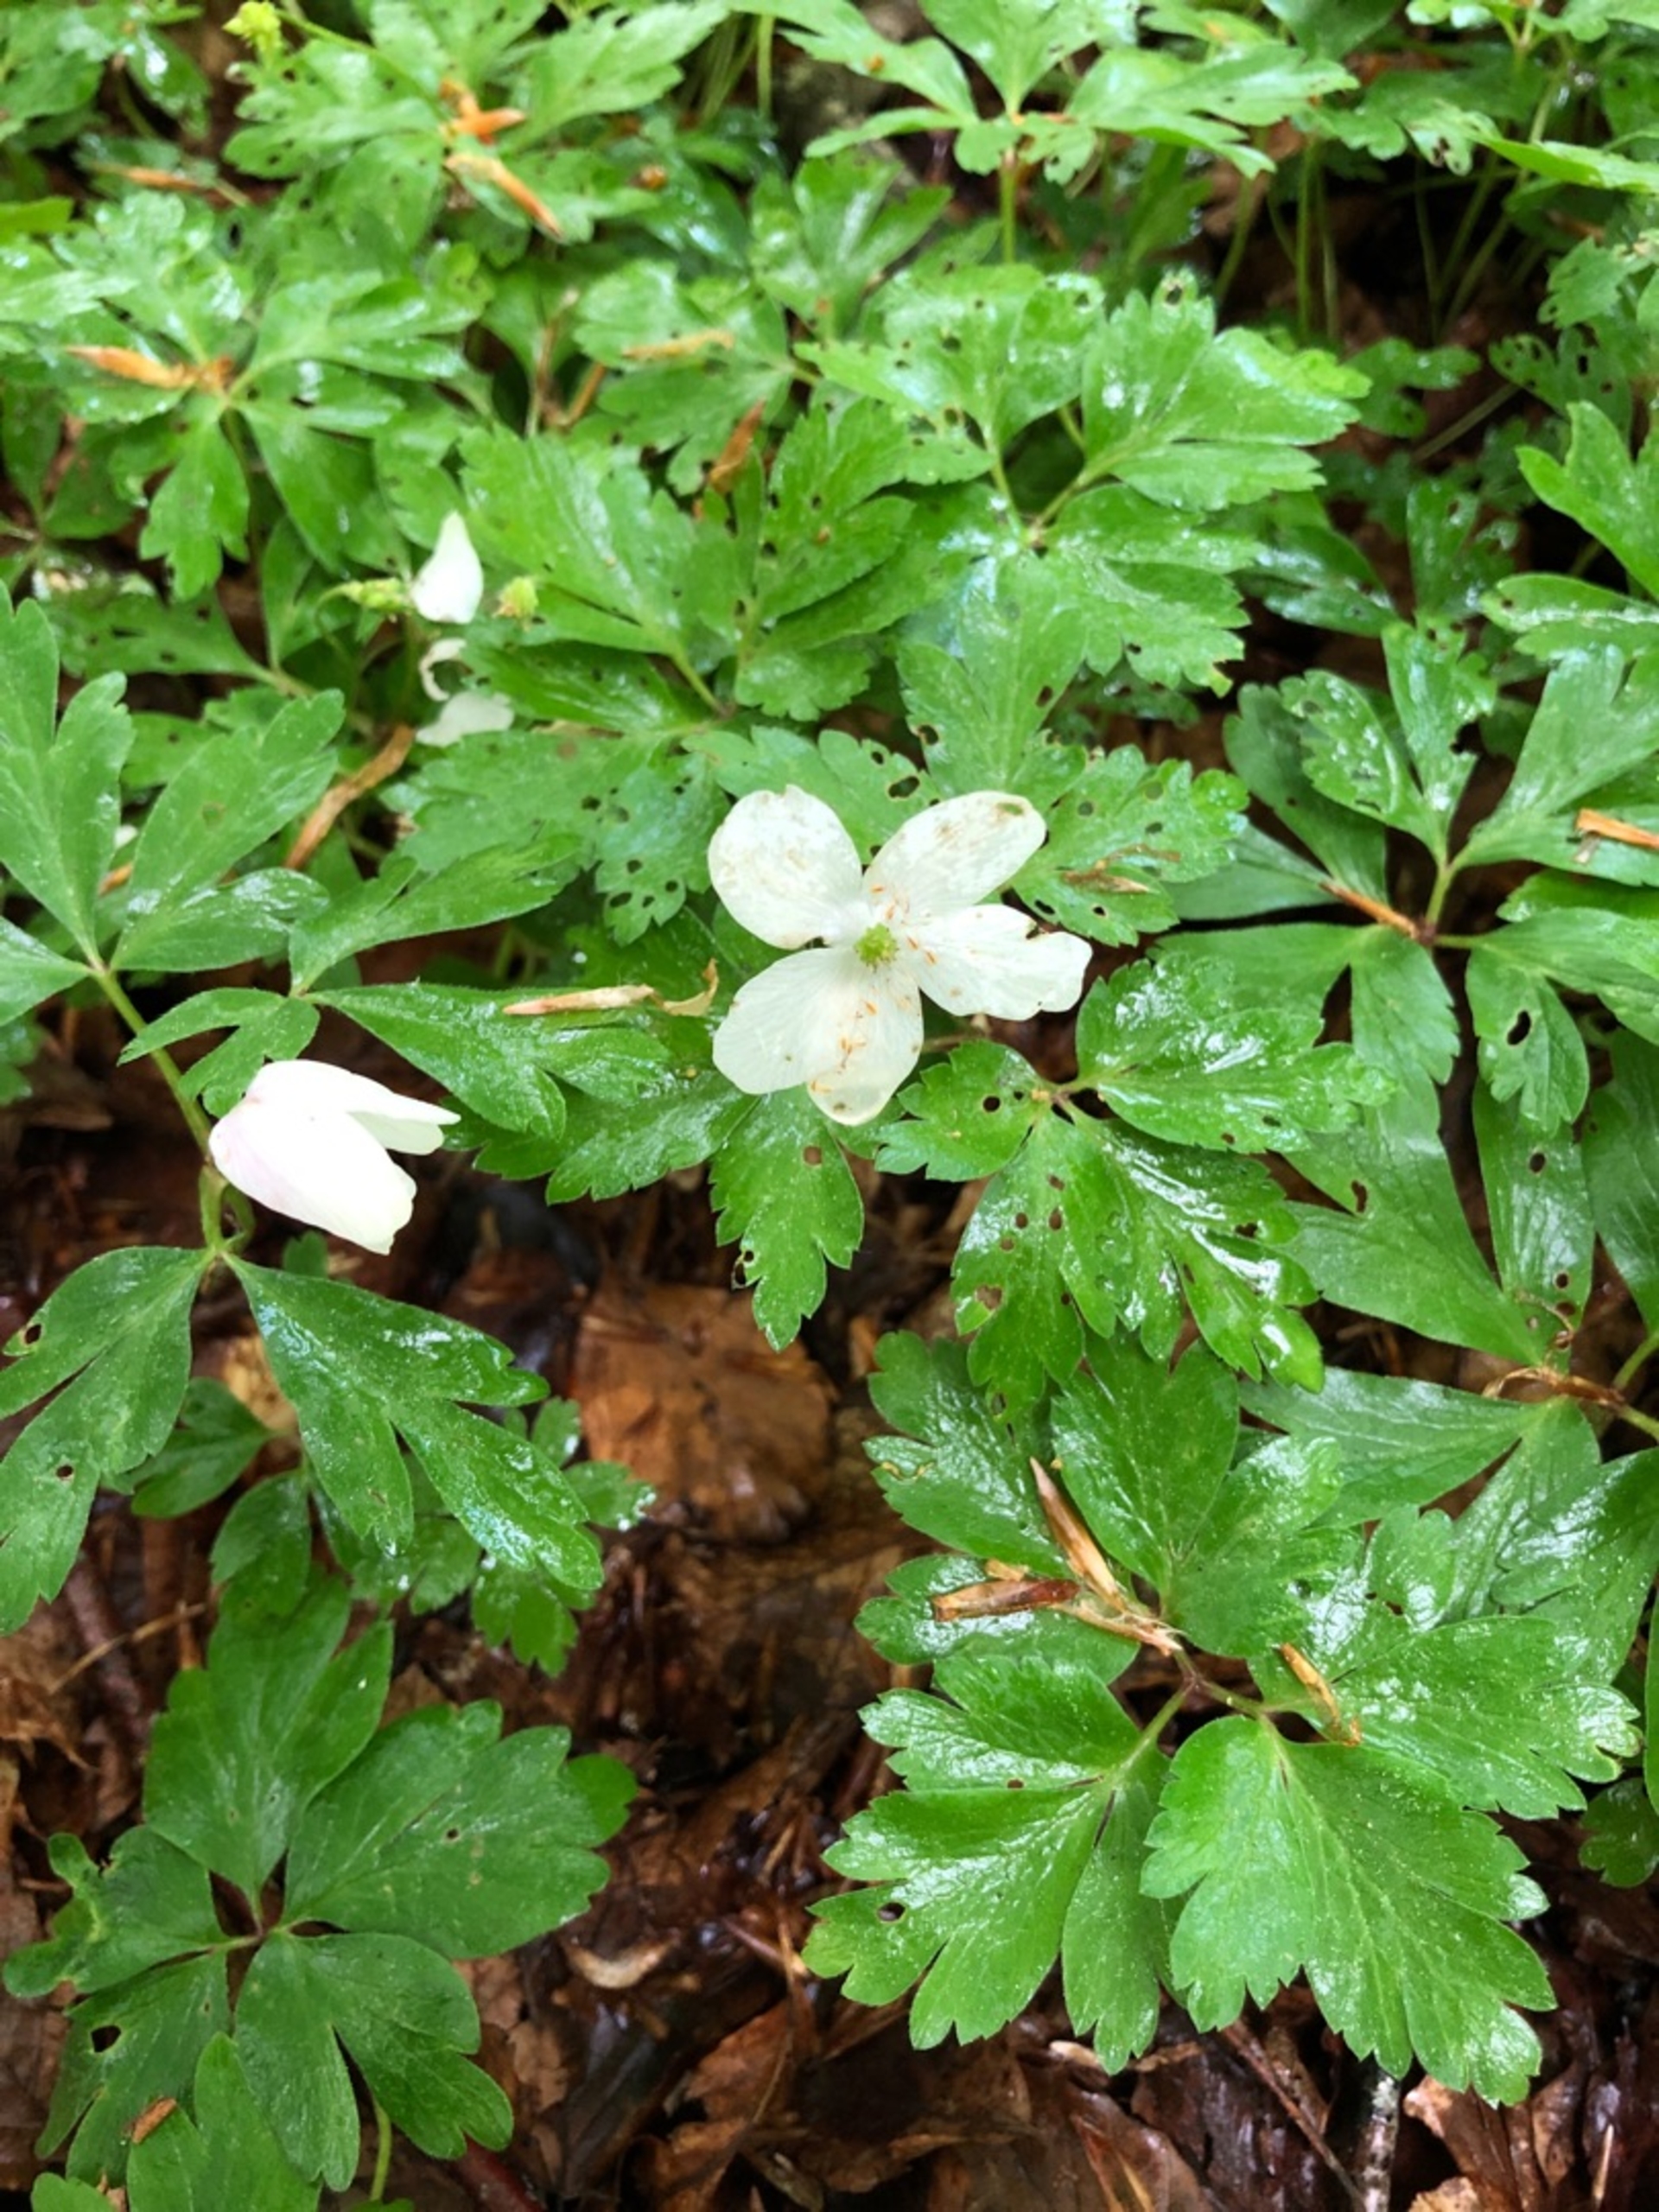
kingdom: Plantae
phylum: Tracheophyta
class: Magnoliopsida
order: Ranunculales
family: Ranunculaceae
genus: Anemone
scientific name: Anemone nemorosa
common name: Hvid anemone
